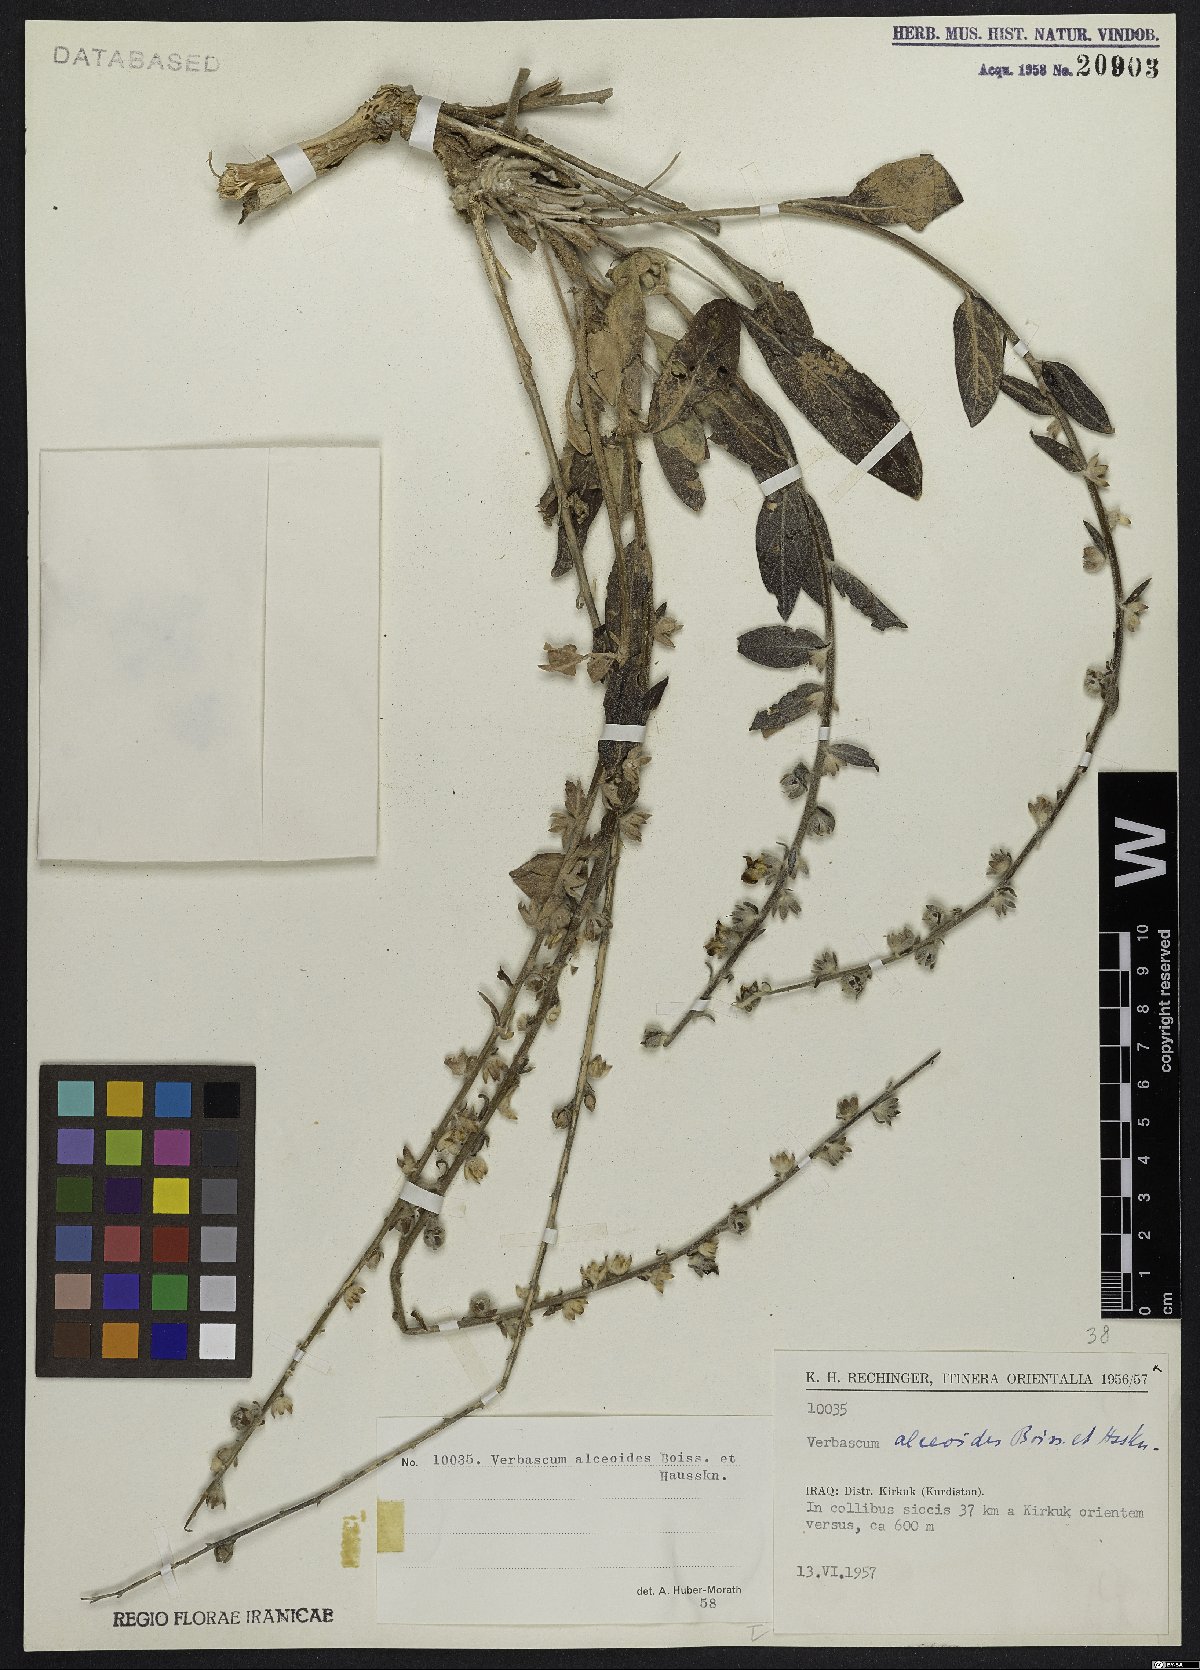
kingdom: Plantae
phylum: Tracheophyta
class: Magnoliopsida
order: Lamiales
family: Scrophulariaceae
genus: Verbascum
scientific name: Verbascum alceoides
